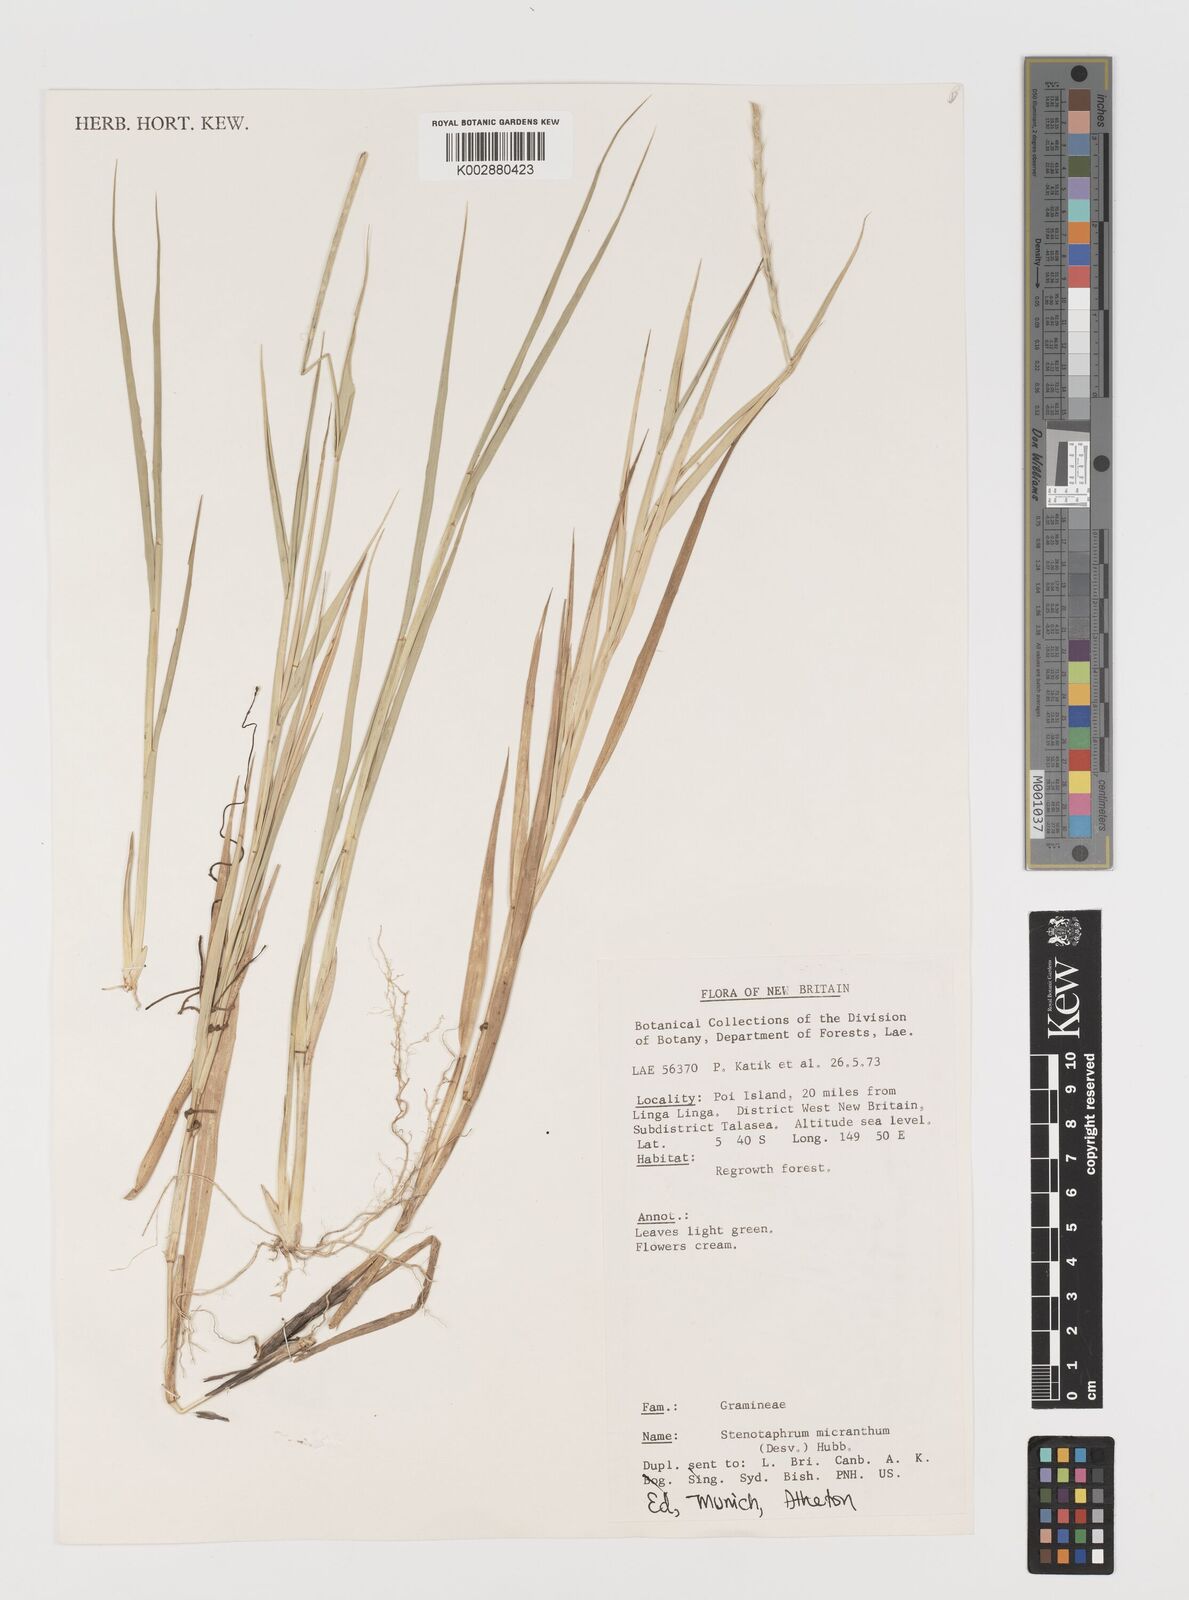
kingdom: Plantae
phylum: Tracheophyta
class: Liliopsida
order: Poales
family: Poaceae
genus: Lepturus
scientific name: Lepturus
